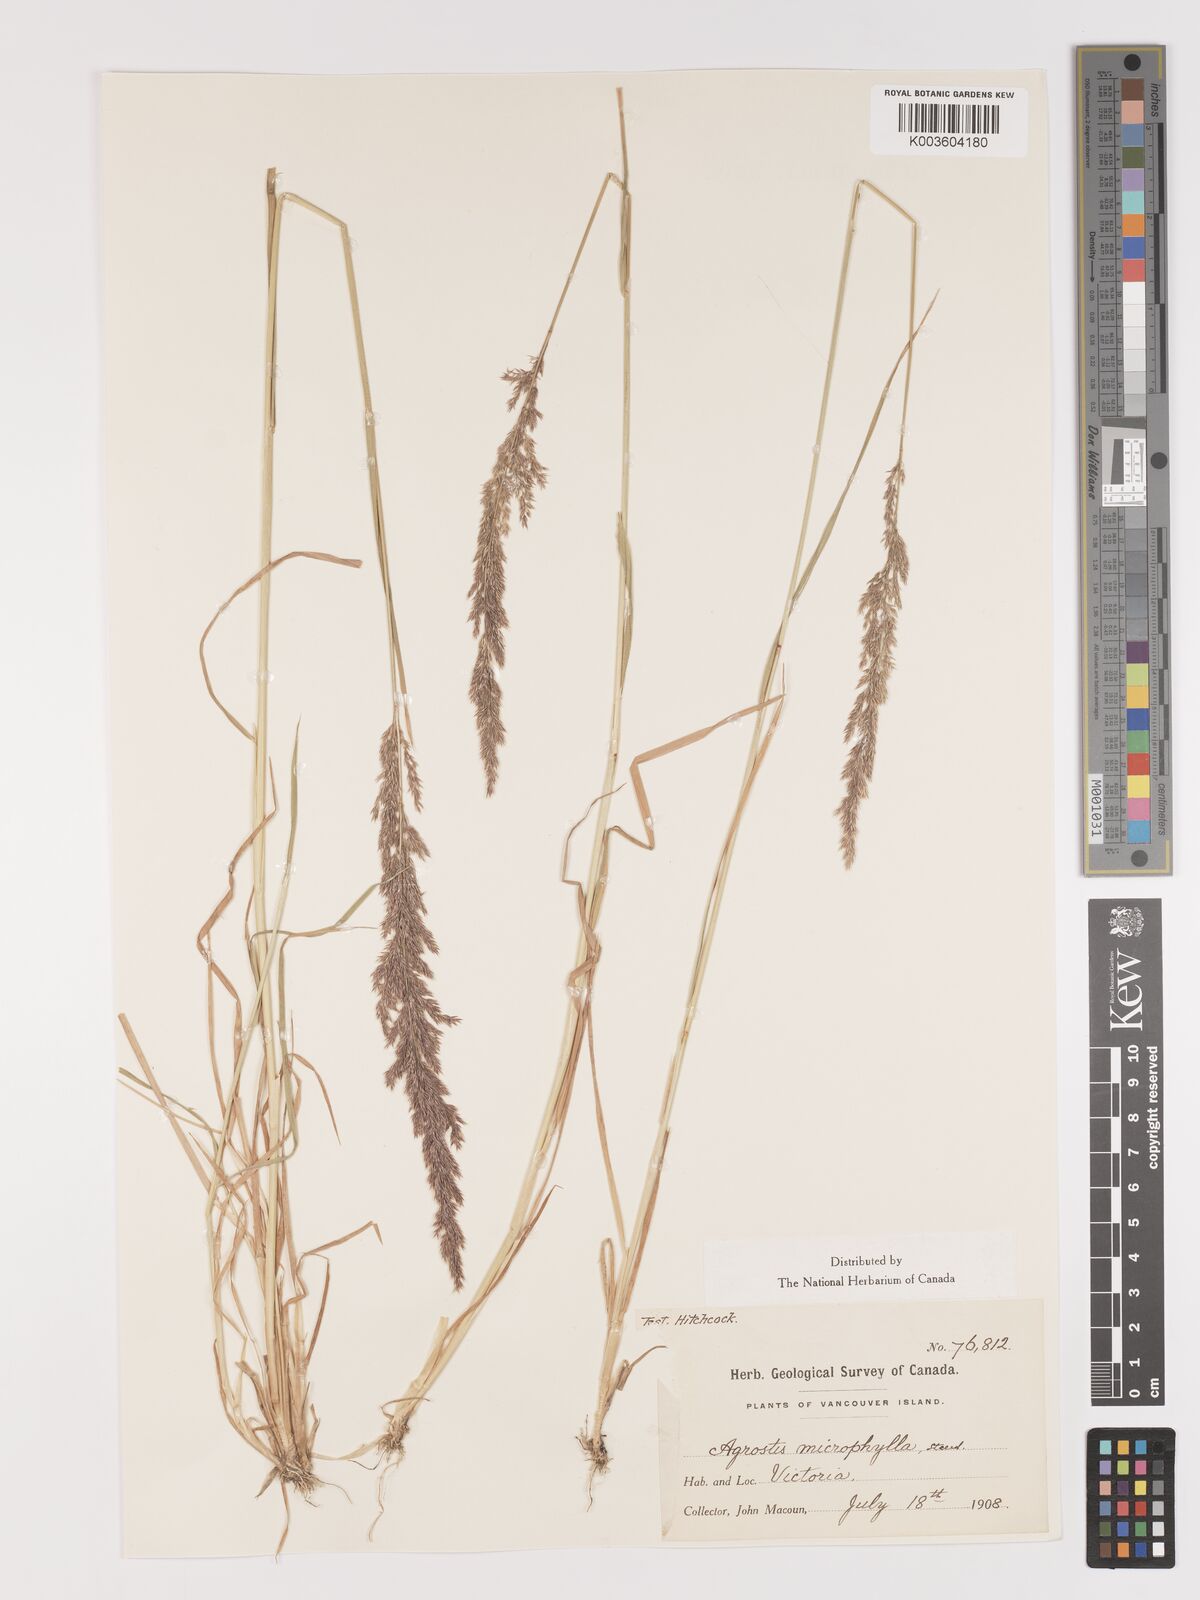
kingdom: Plantae
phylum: Tracheophyta
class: Liliopsida
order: Poales
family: Poaceae
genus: Agrostis
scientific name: Agrostis microphylla
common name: Small-leaf bent
